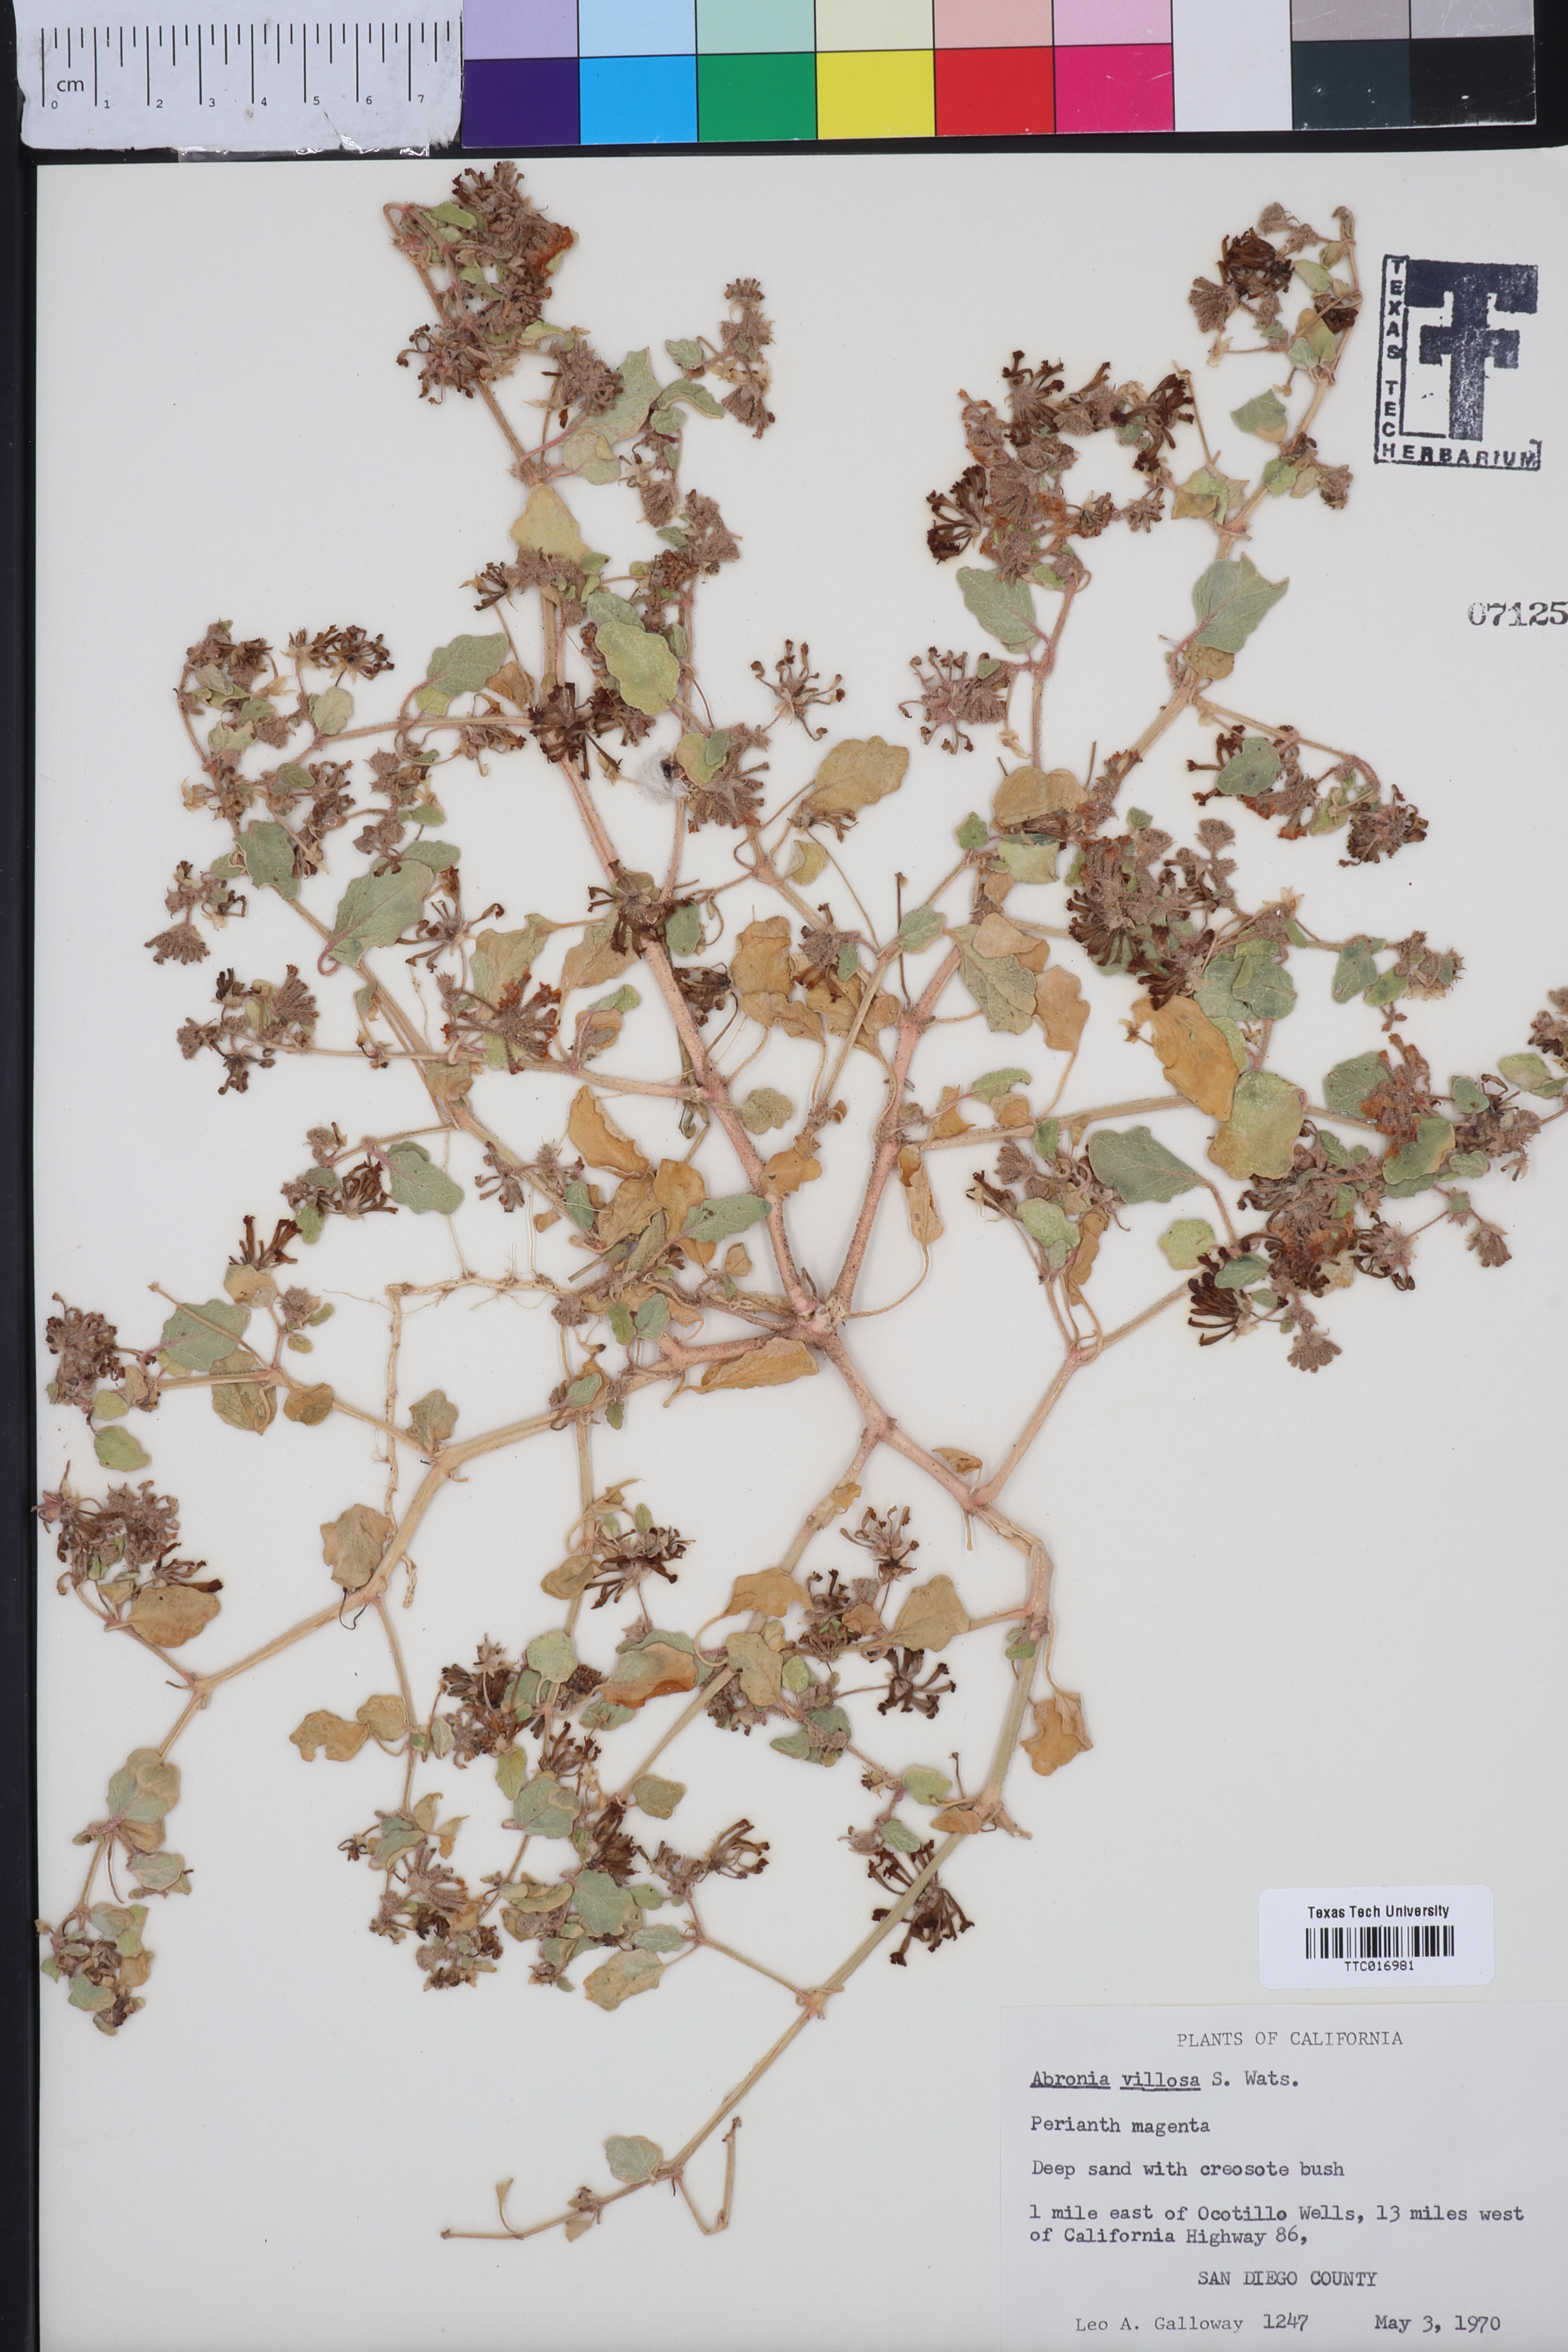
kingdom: Plantae
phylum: Tracheophyta
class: Magnoliopsida
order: Caryophyllales
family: Nyctaginaceae
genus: Abronia
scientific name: Abronia villosa
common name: Desert sand-verbena
